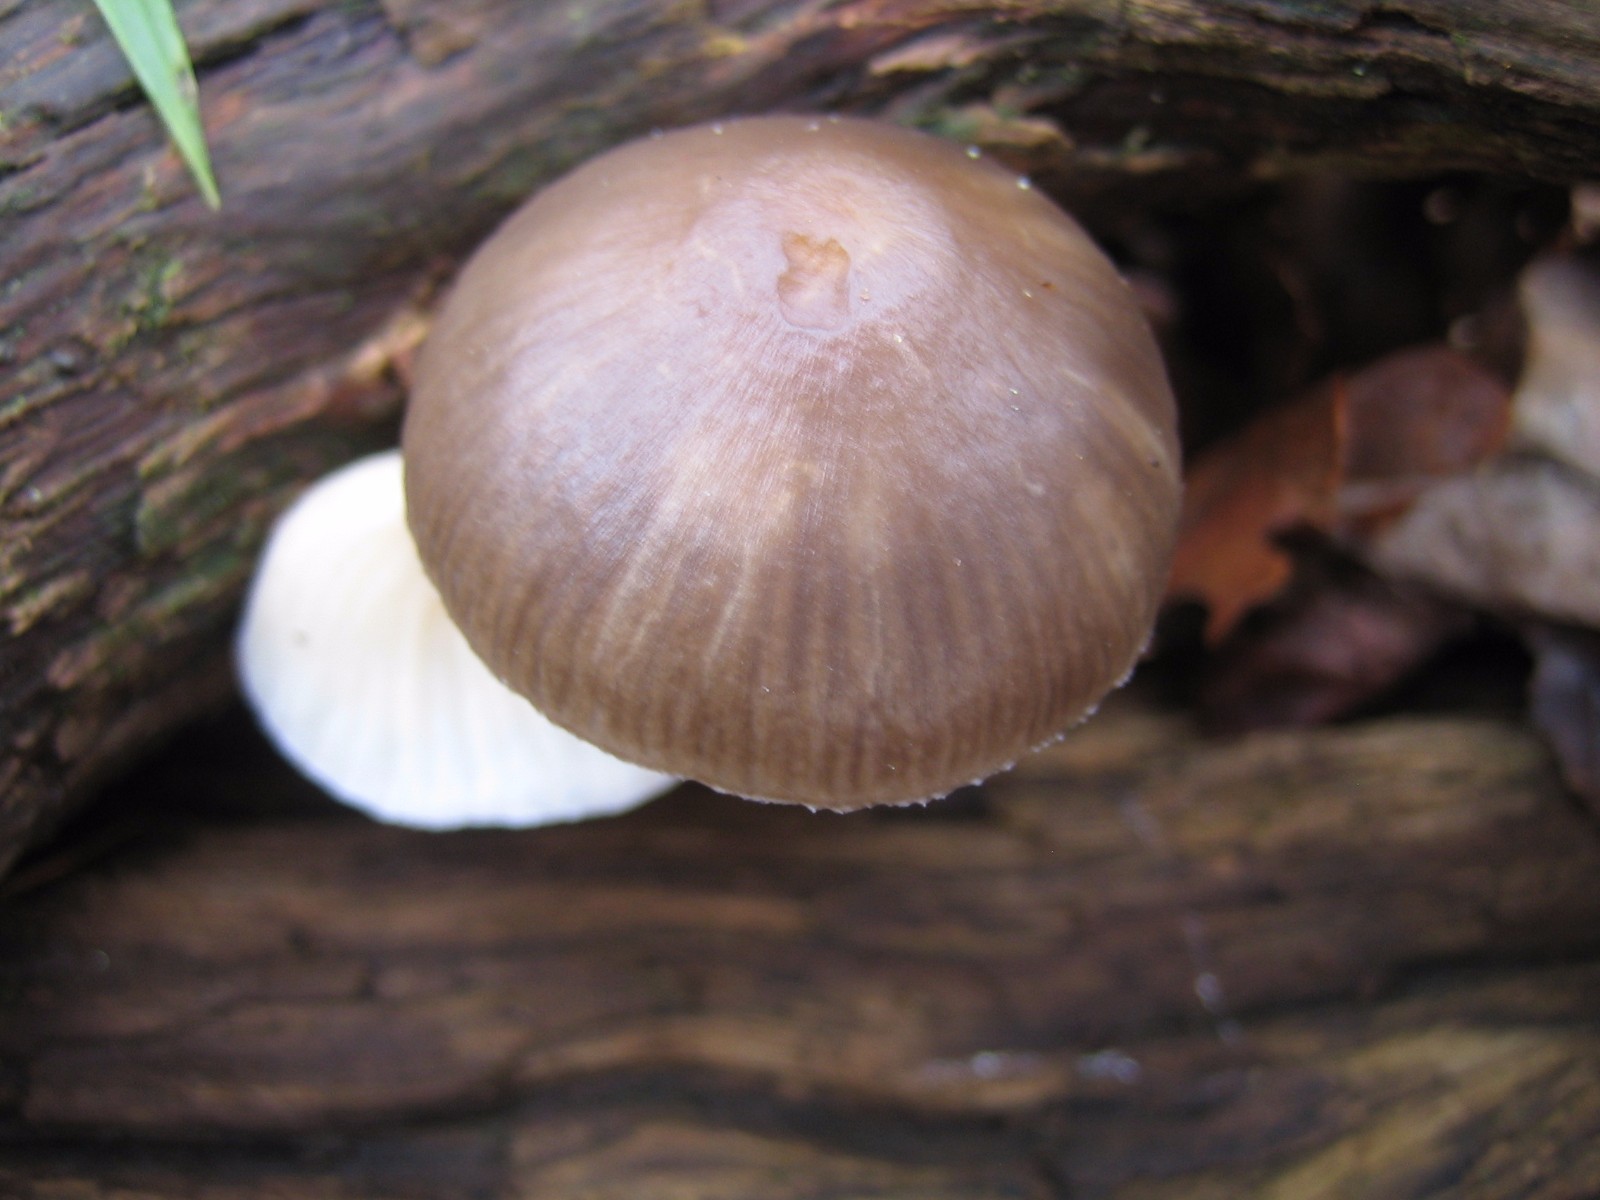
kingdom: Fungi
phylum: Basidiomycota
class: Agaricomycetes
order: Agaricales
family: Mycenaceae
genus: Mycena
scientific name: Mycena inclinata
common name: nikkende huesvamp
